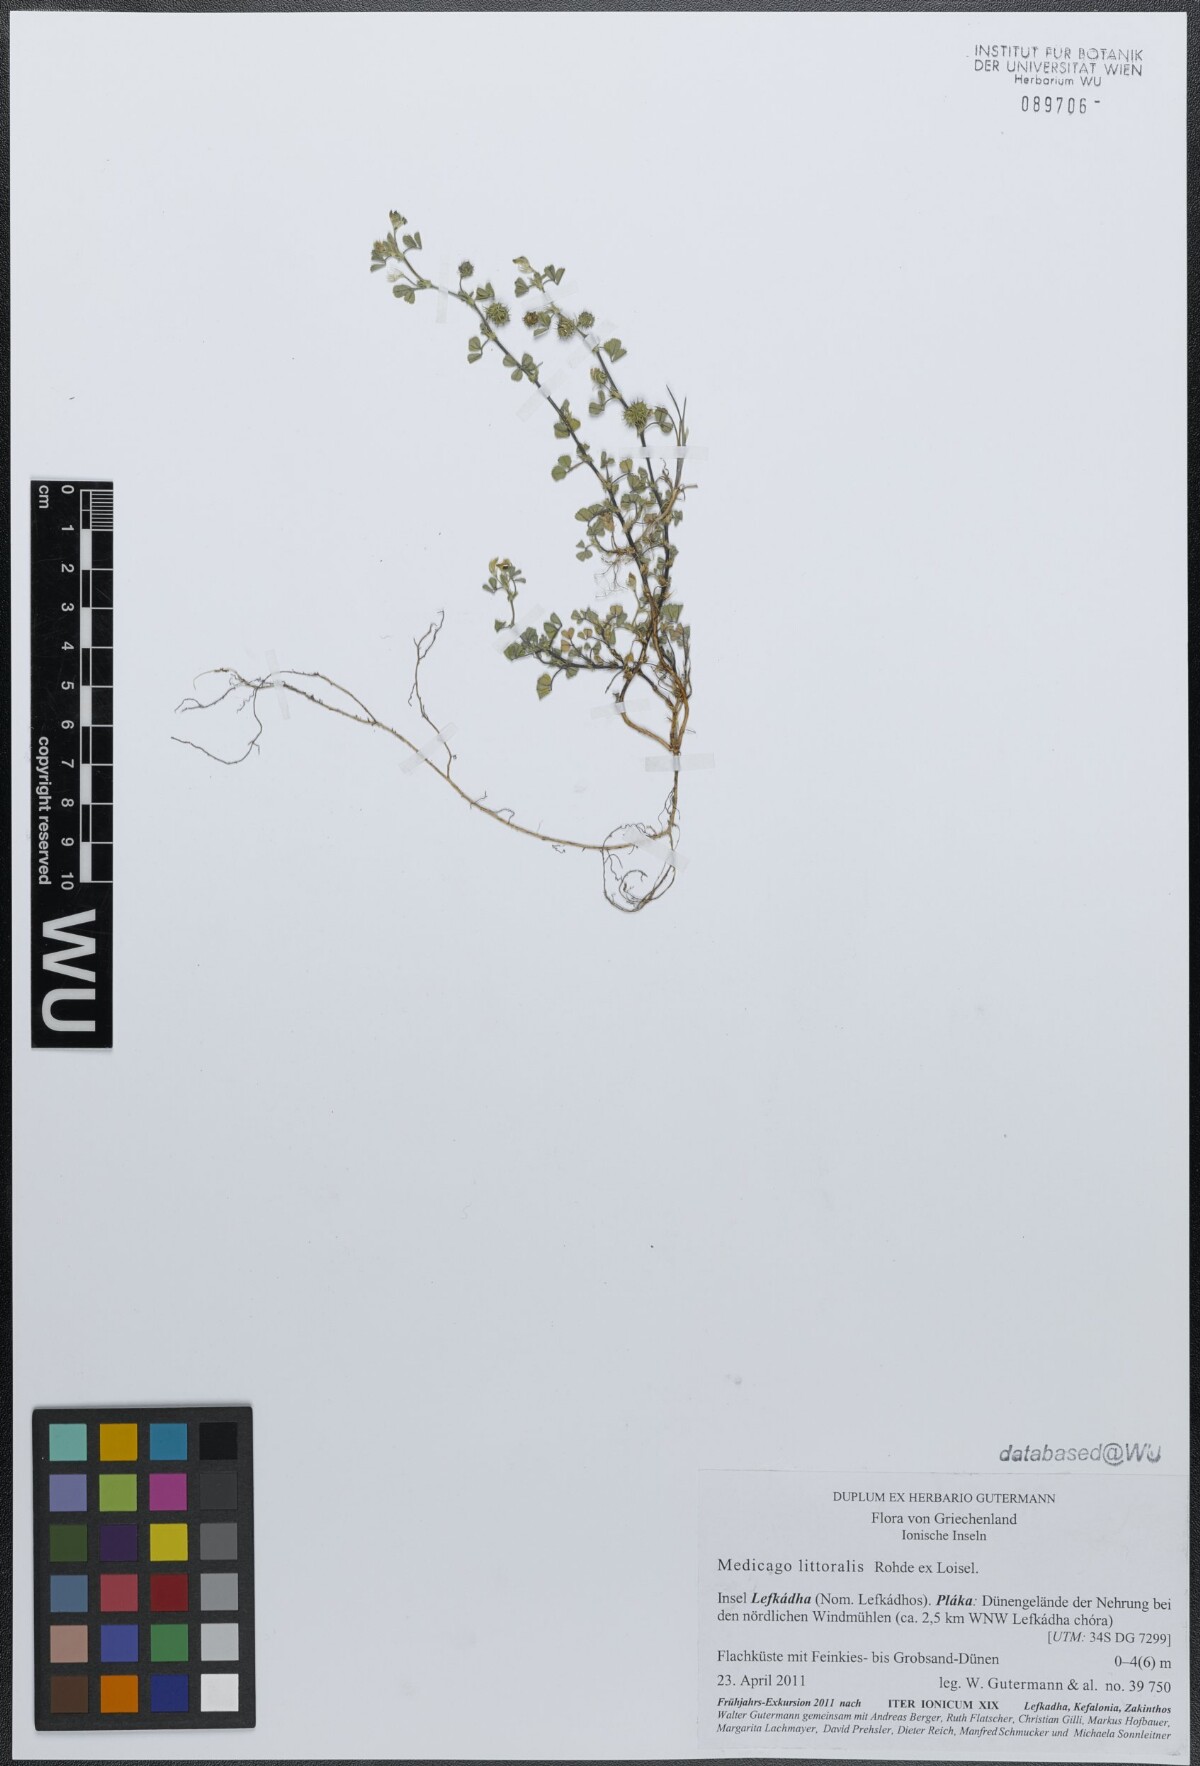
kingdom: Plantae
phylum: Tracheophyta
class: Magnoliopsida
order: Fabales
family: Fabaceae
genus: Medicago
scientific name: Medicago littoralis
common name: Shore medick
